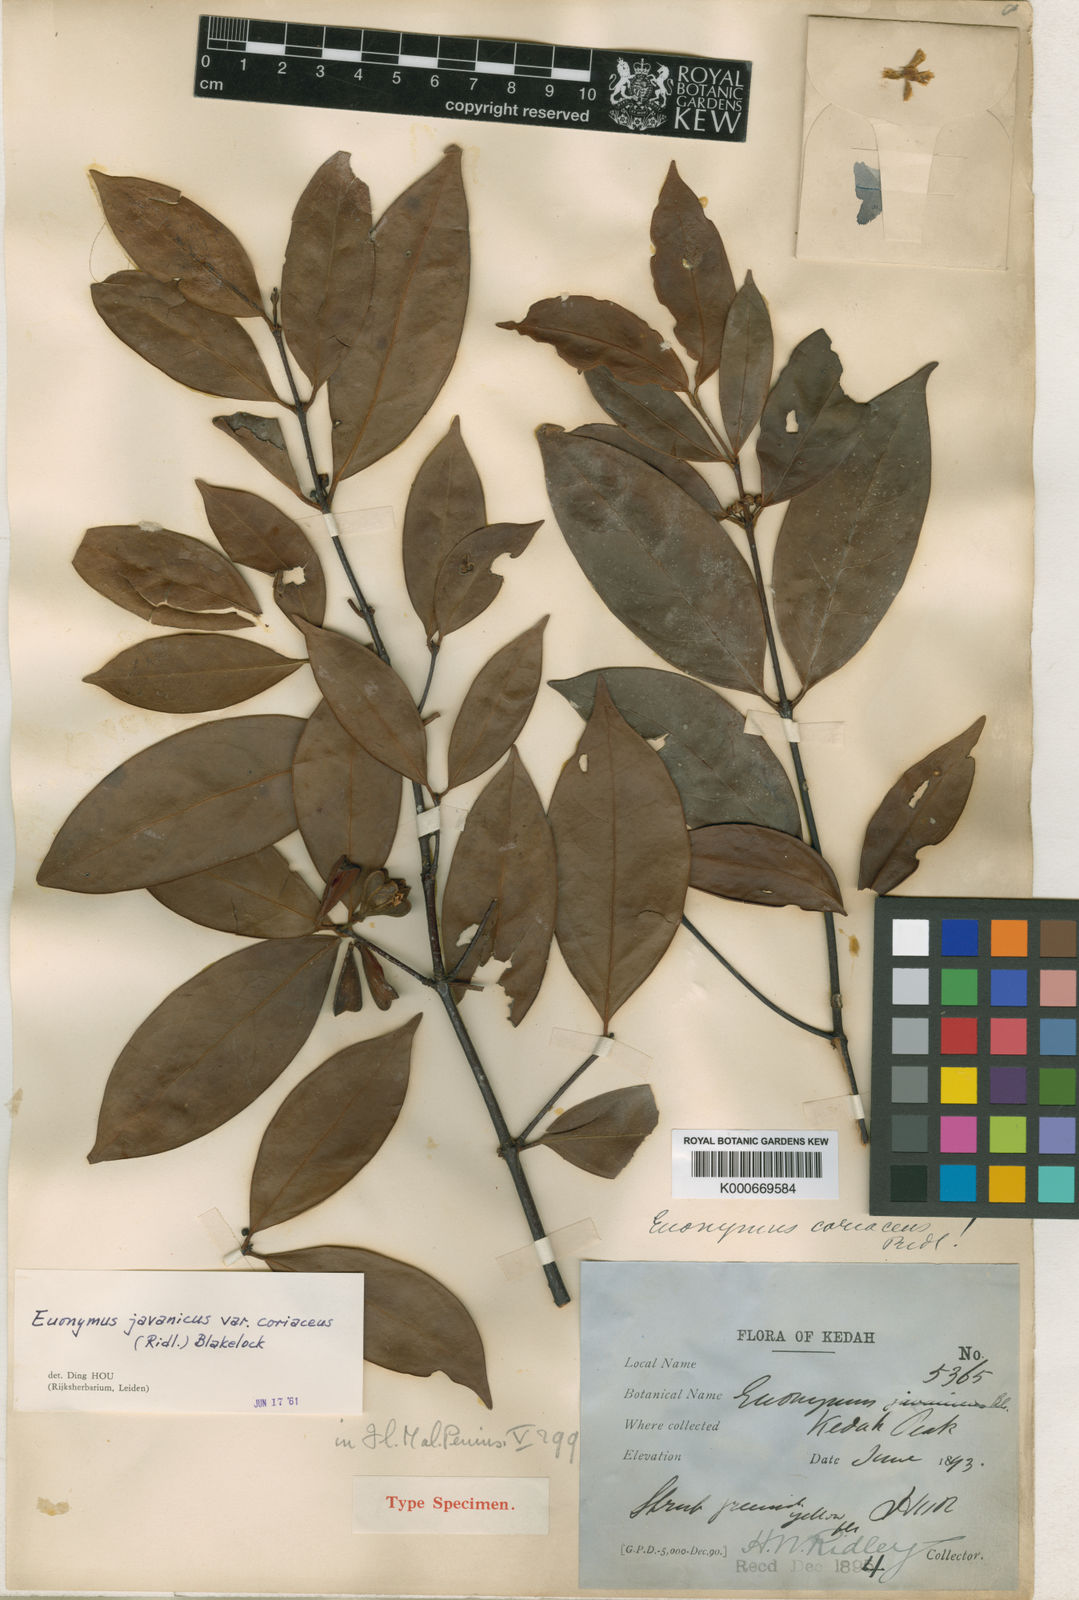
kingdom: Plantae
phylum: Tracheophyta
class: Magnoliopsida
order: Celastrales
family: Celastraceae
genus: Euonymus
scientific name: Euonymus indicus
